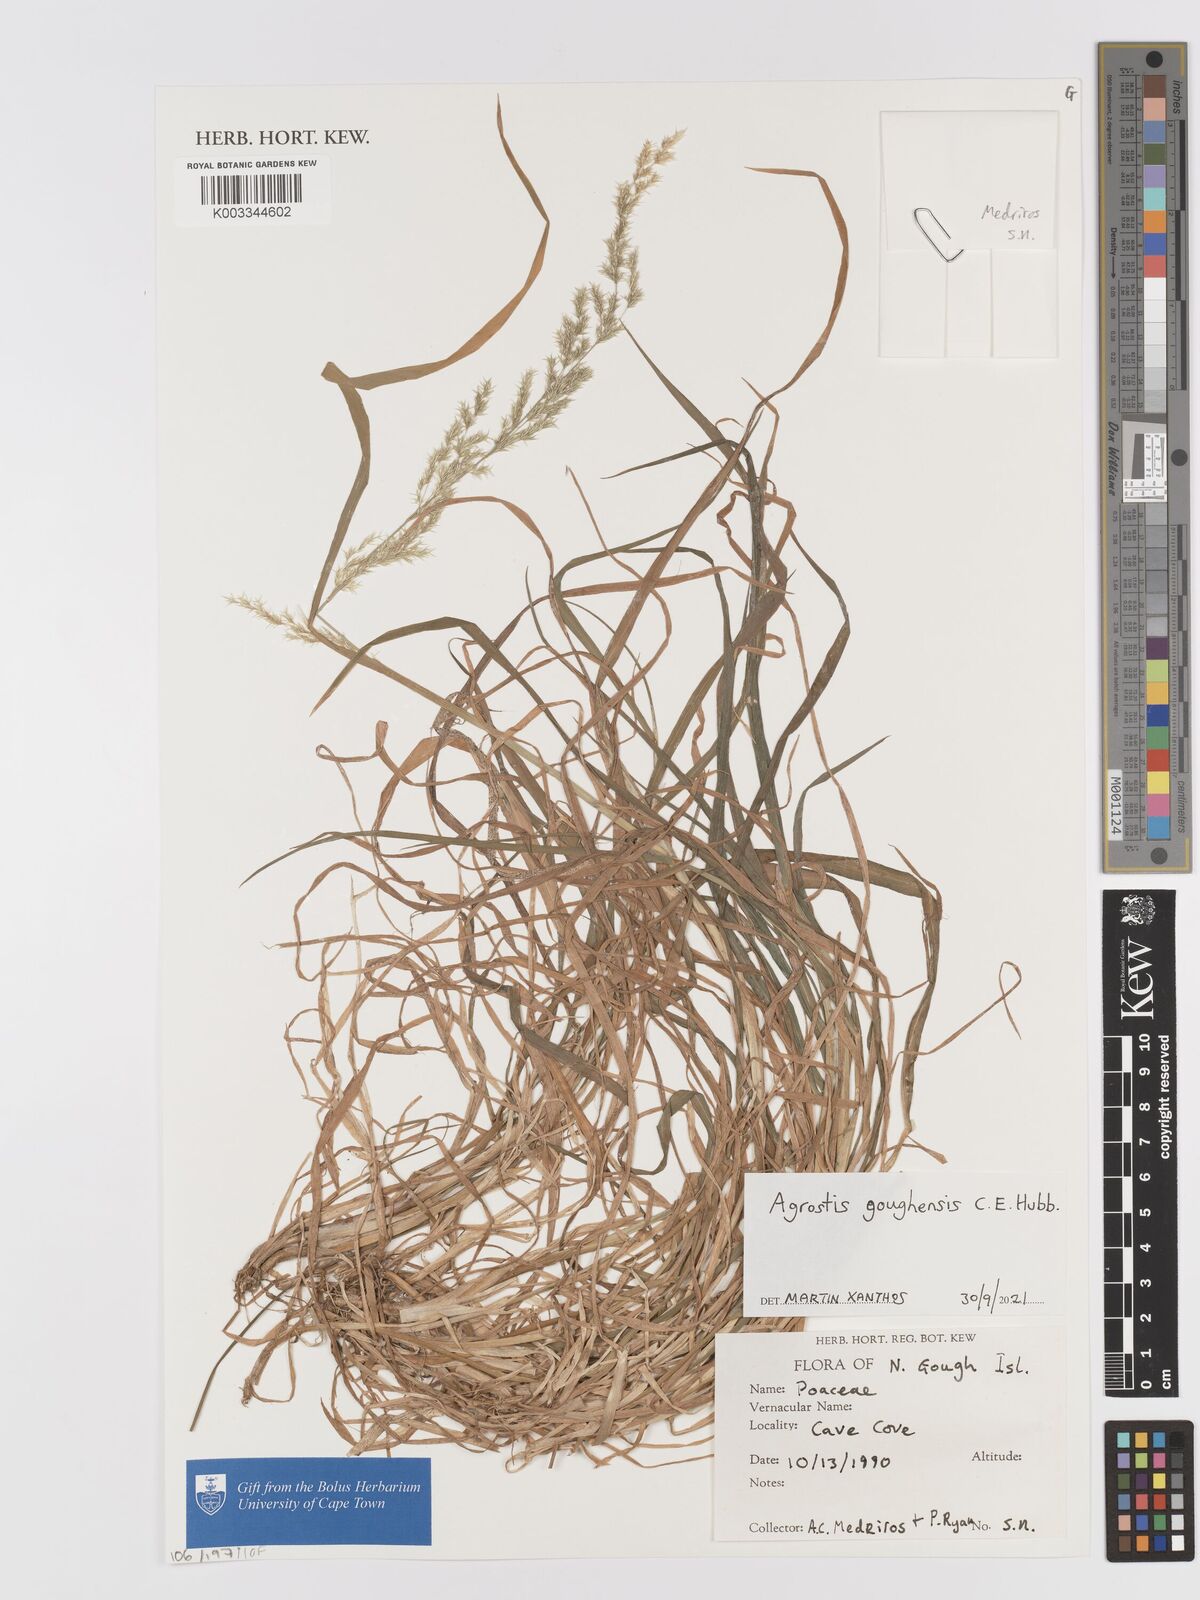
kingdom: Plantae
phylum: Tracheophyta
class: Liliopsida
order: Poales
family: Poaceae
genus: Agrostis
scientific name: Agrostis goughensis
